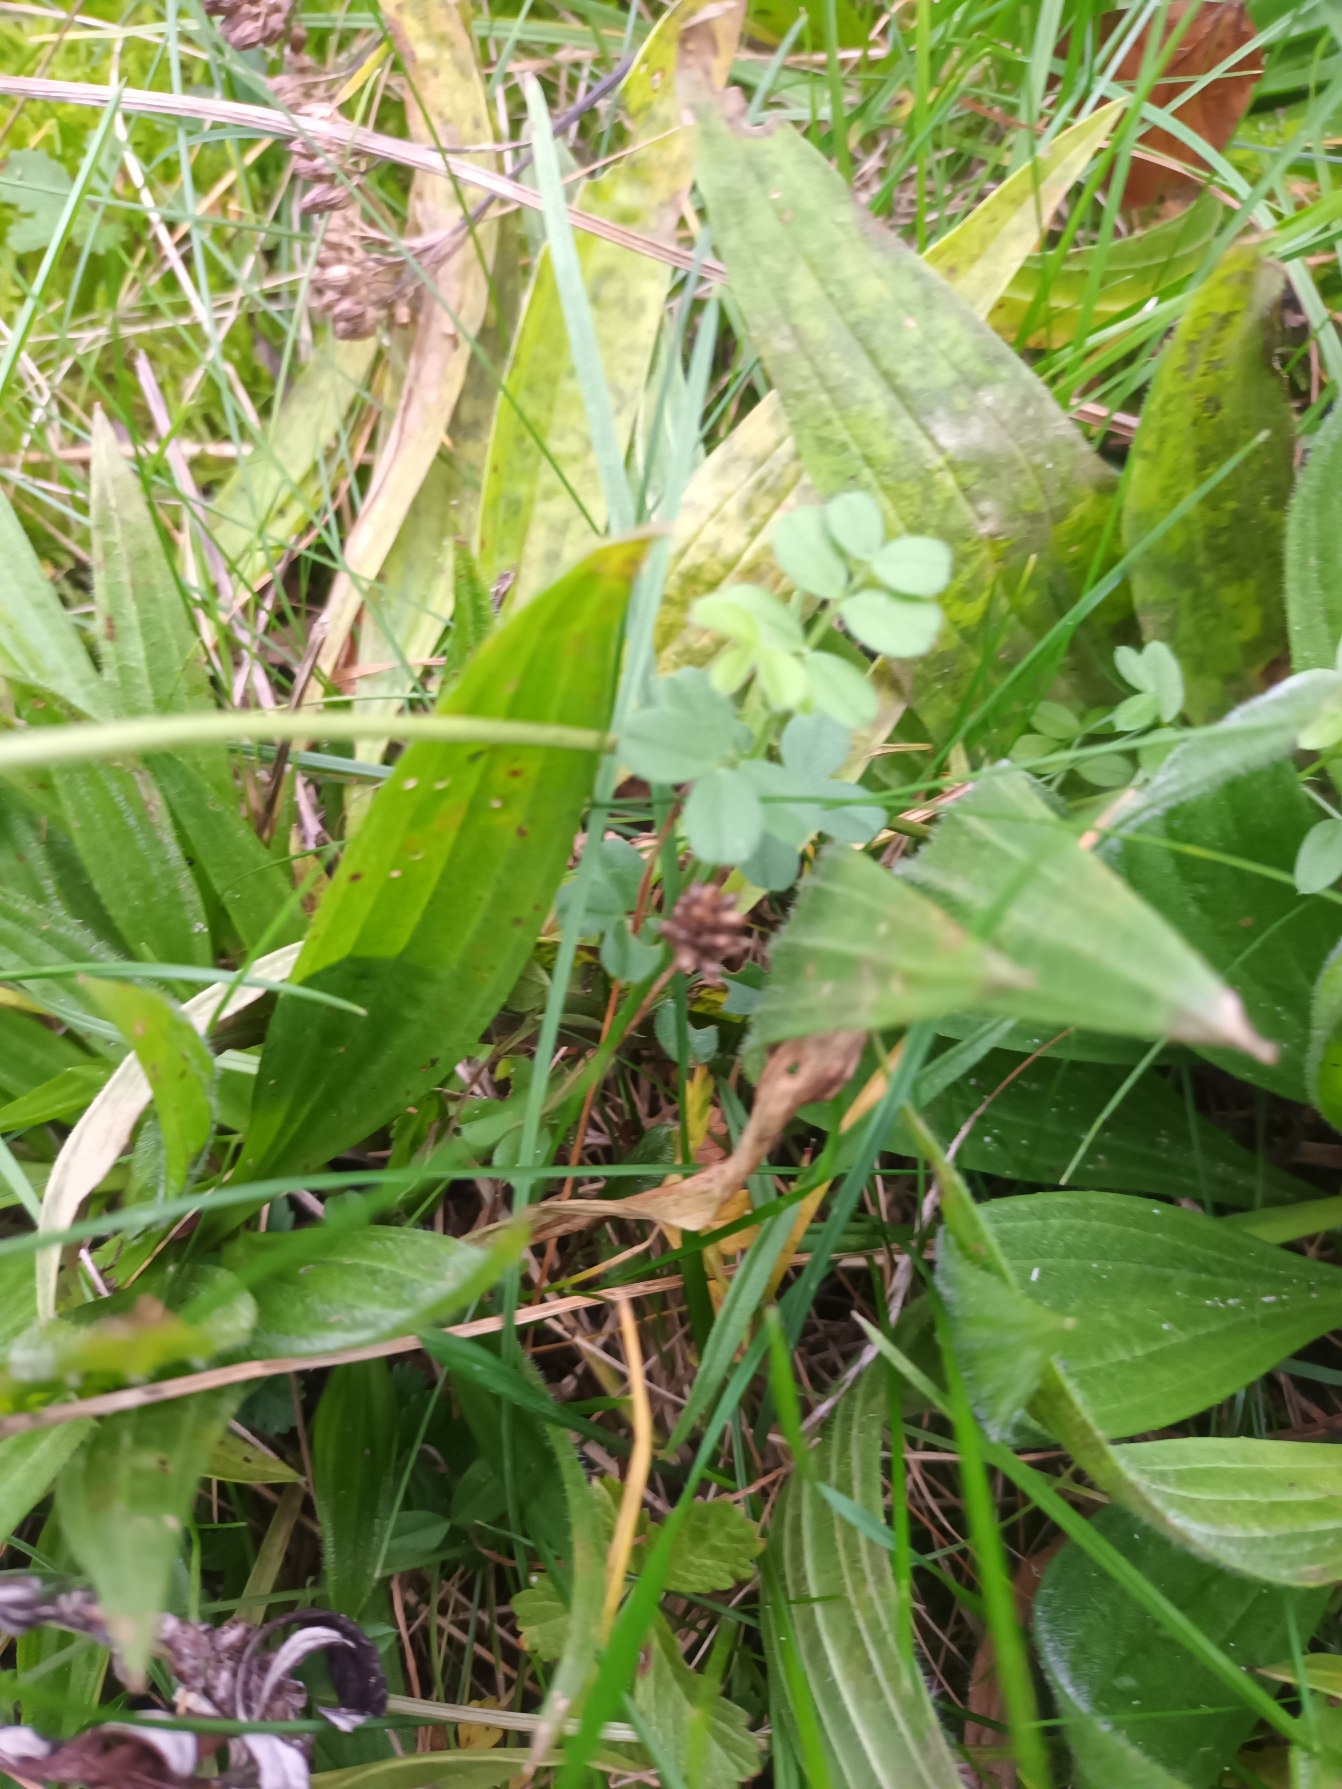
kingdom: Plantae
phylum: Tracheophyta
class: Magnoliopsida
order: Fabales
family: Fabaceae
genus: Vicia
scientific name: Vicia sativa
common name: Smalbladet vikke
